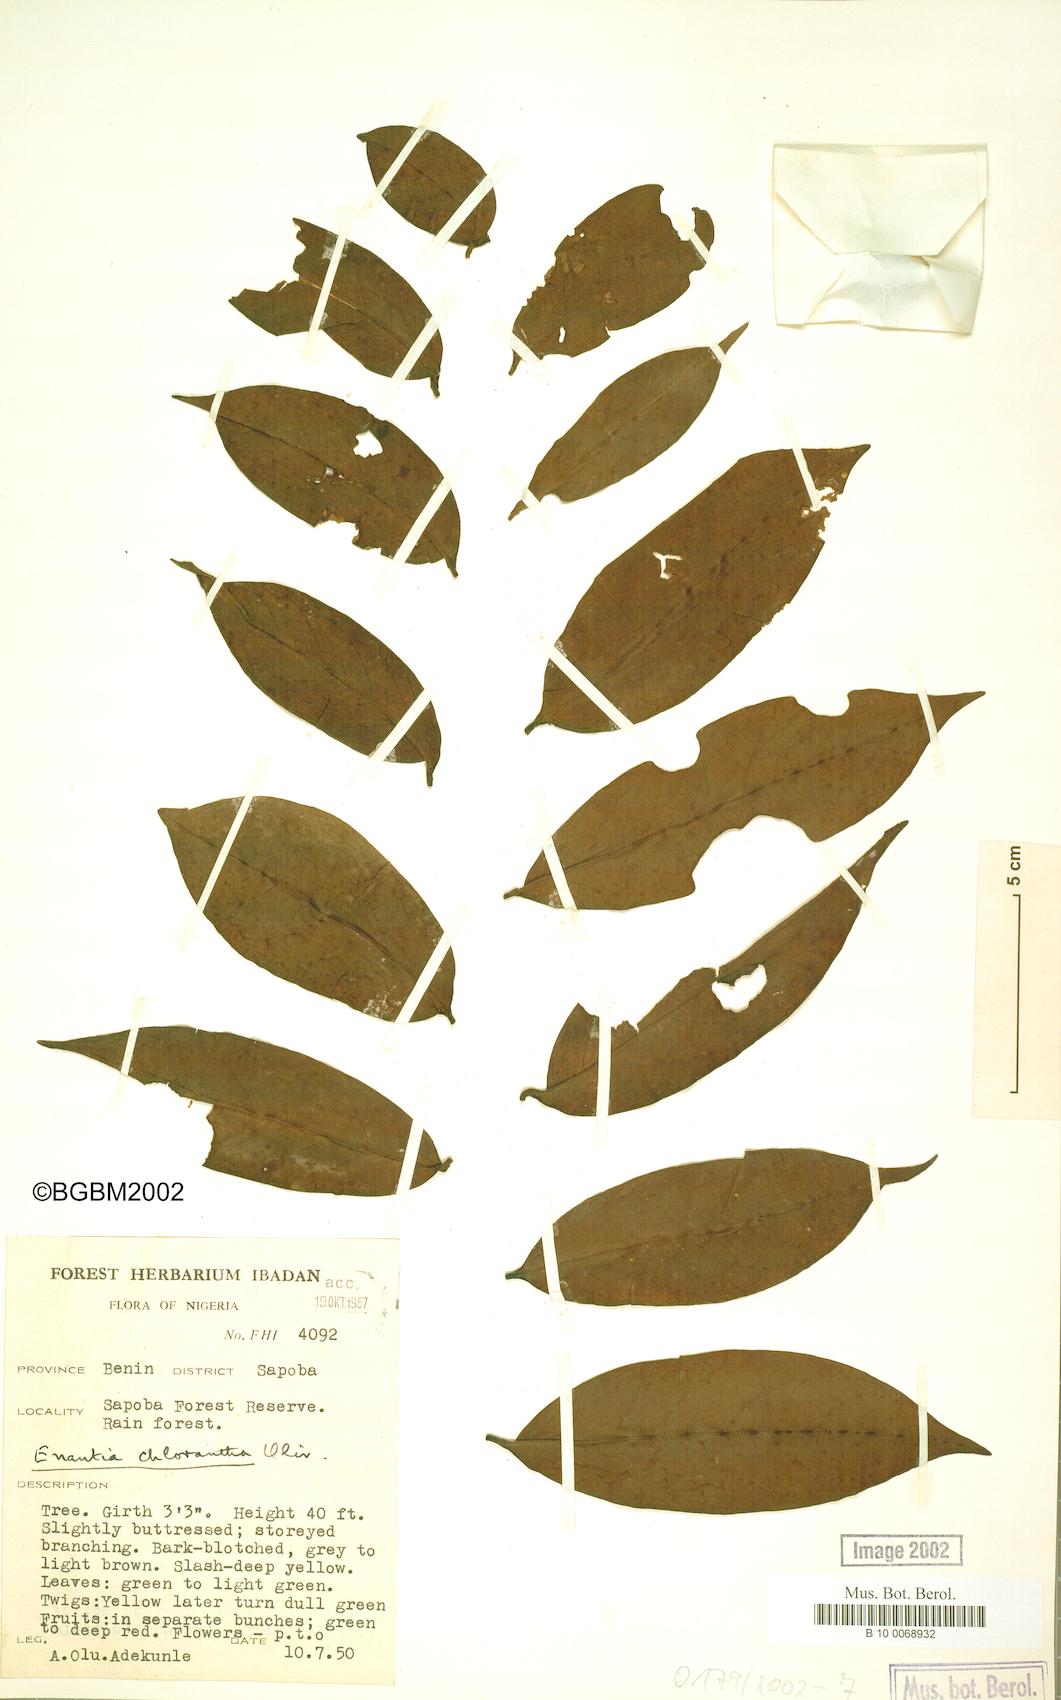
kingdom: Plantae
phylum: Tracheophyta
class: Magnoliopsida
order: Magnoliales
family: Annonaceae
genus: Annickia
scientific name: Annickia chlorantha
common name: African yellowwood
